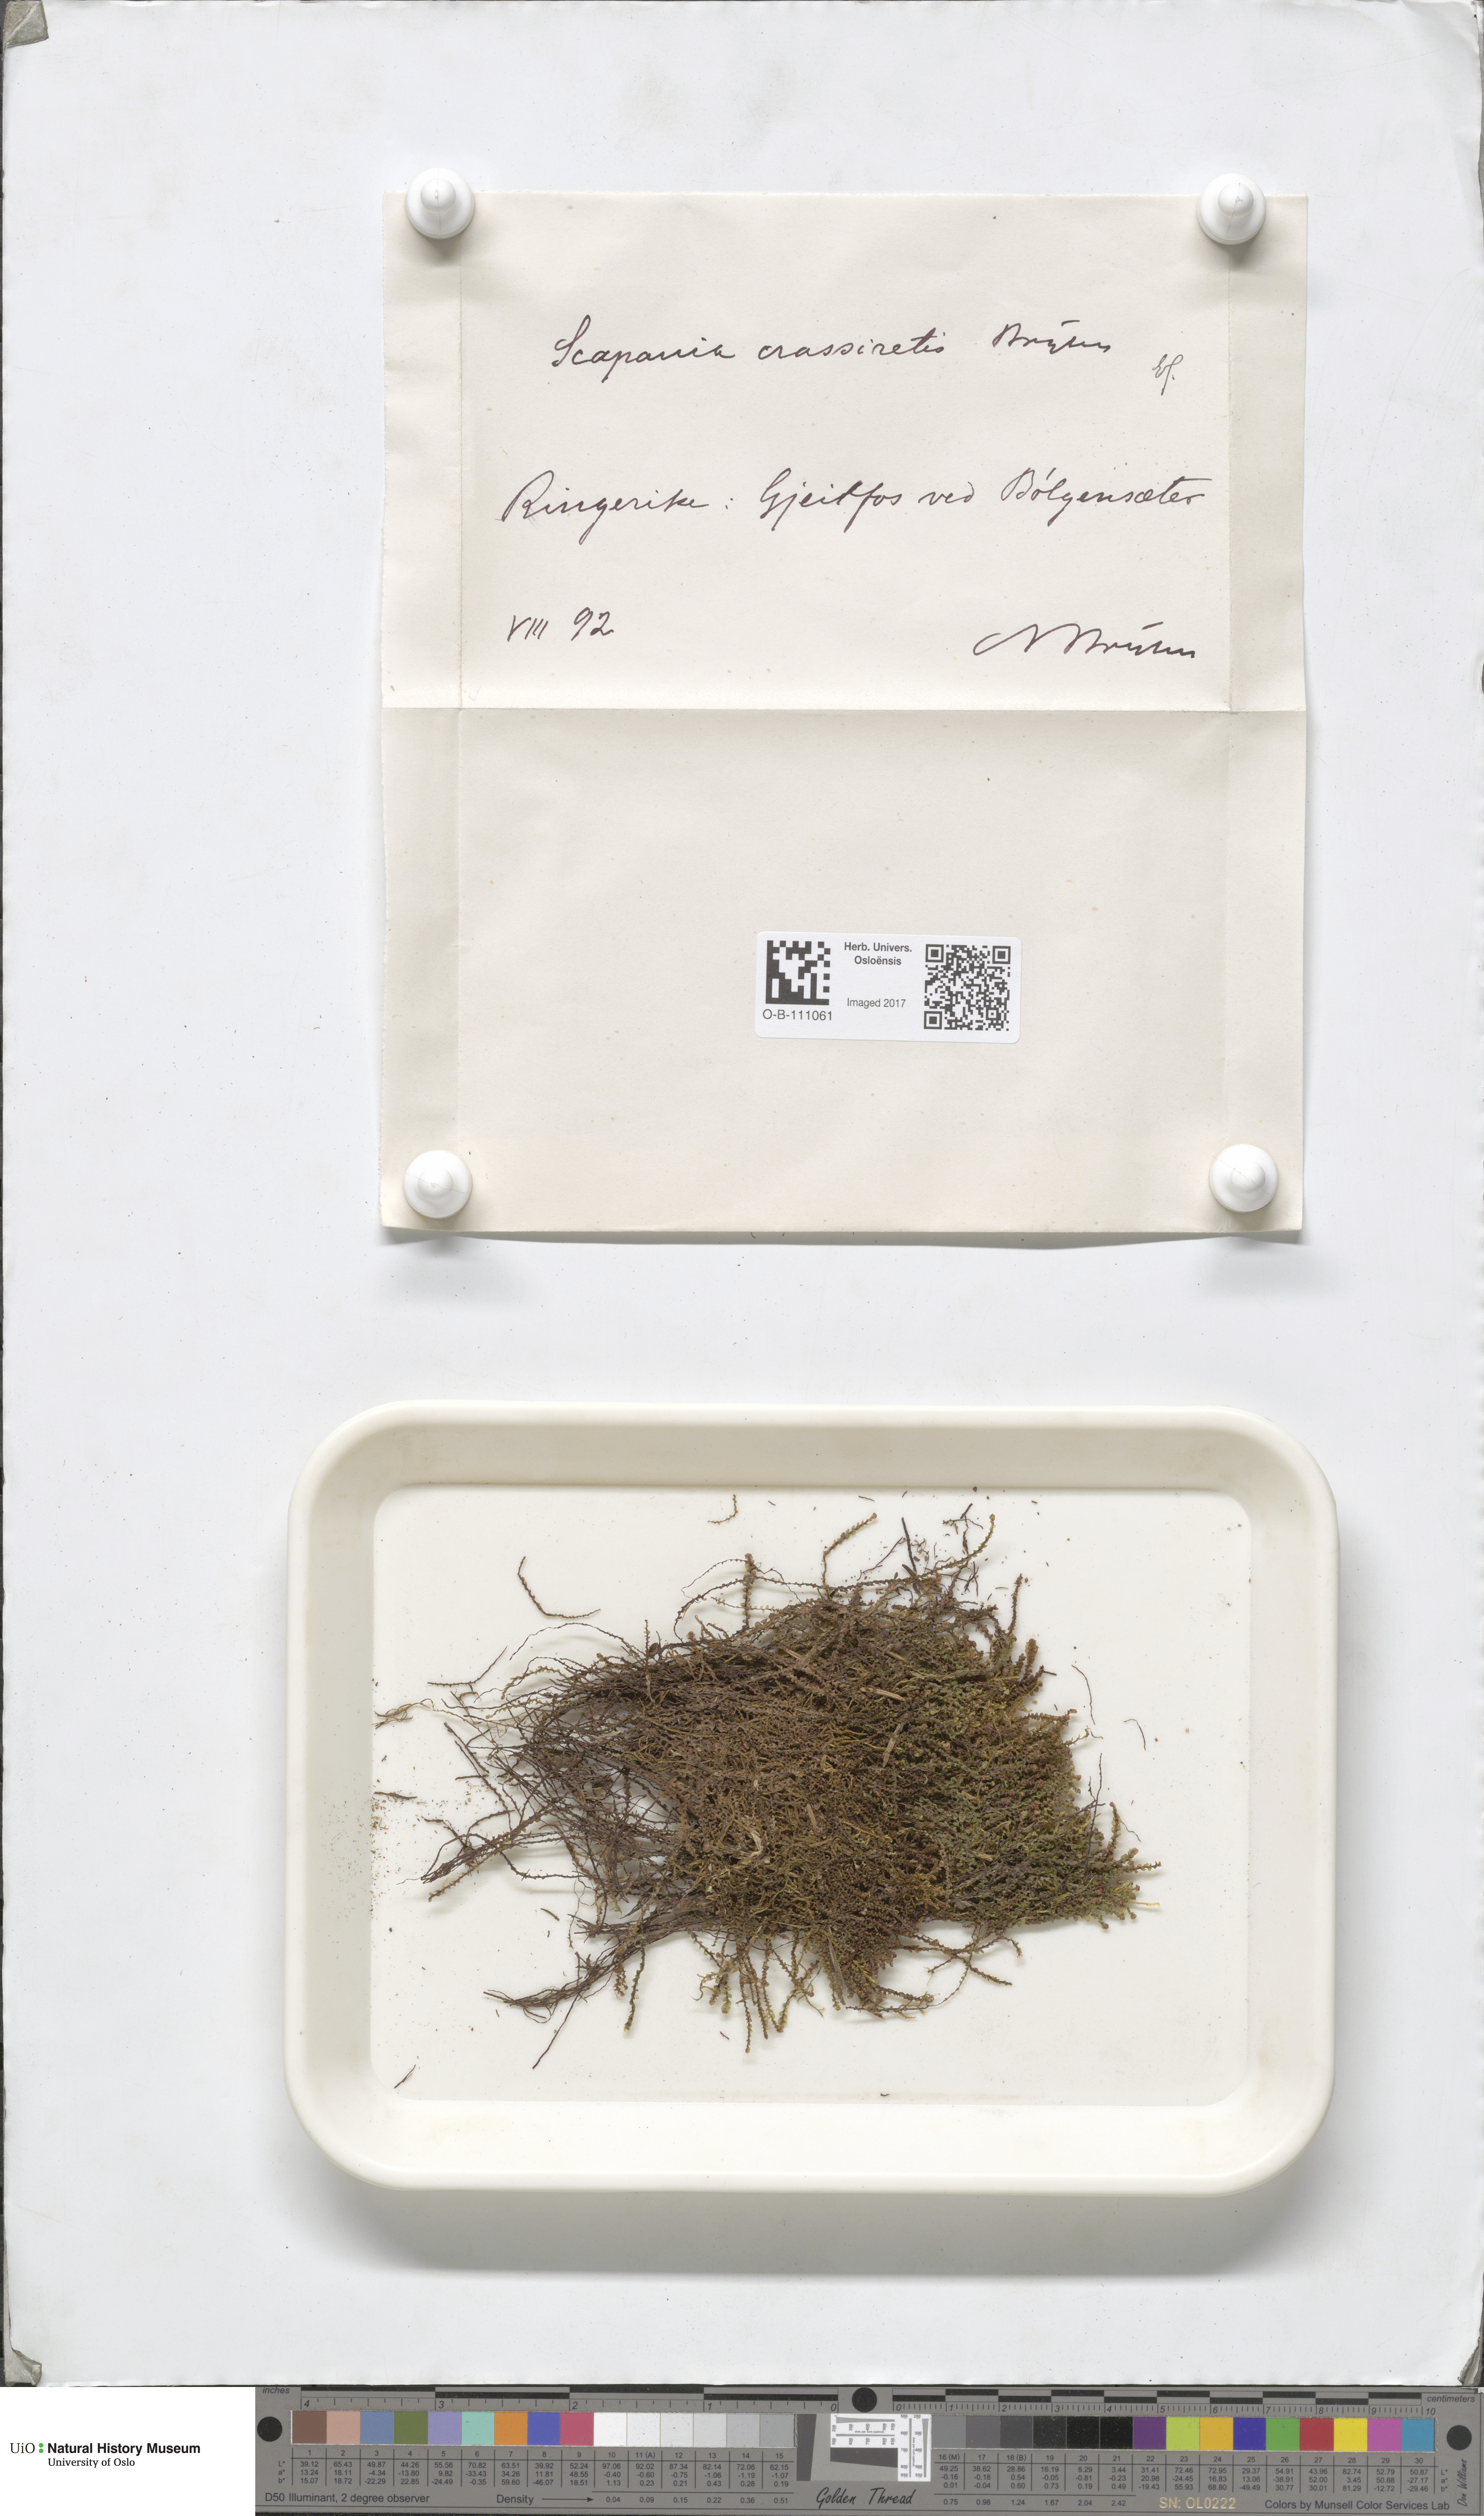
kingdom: Plantae
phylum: Marchantiophyta
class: Jungermanniopsida
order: Jungermanniales
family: Scapaniaceae
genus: Scapania
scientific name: Scapania crassiretis
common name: Knobby earwort
